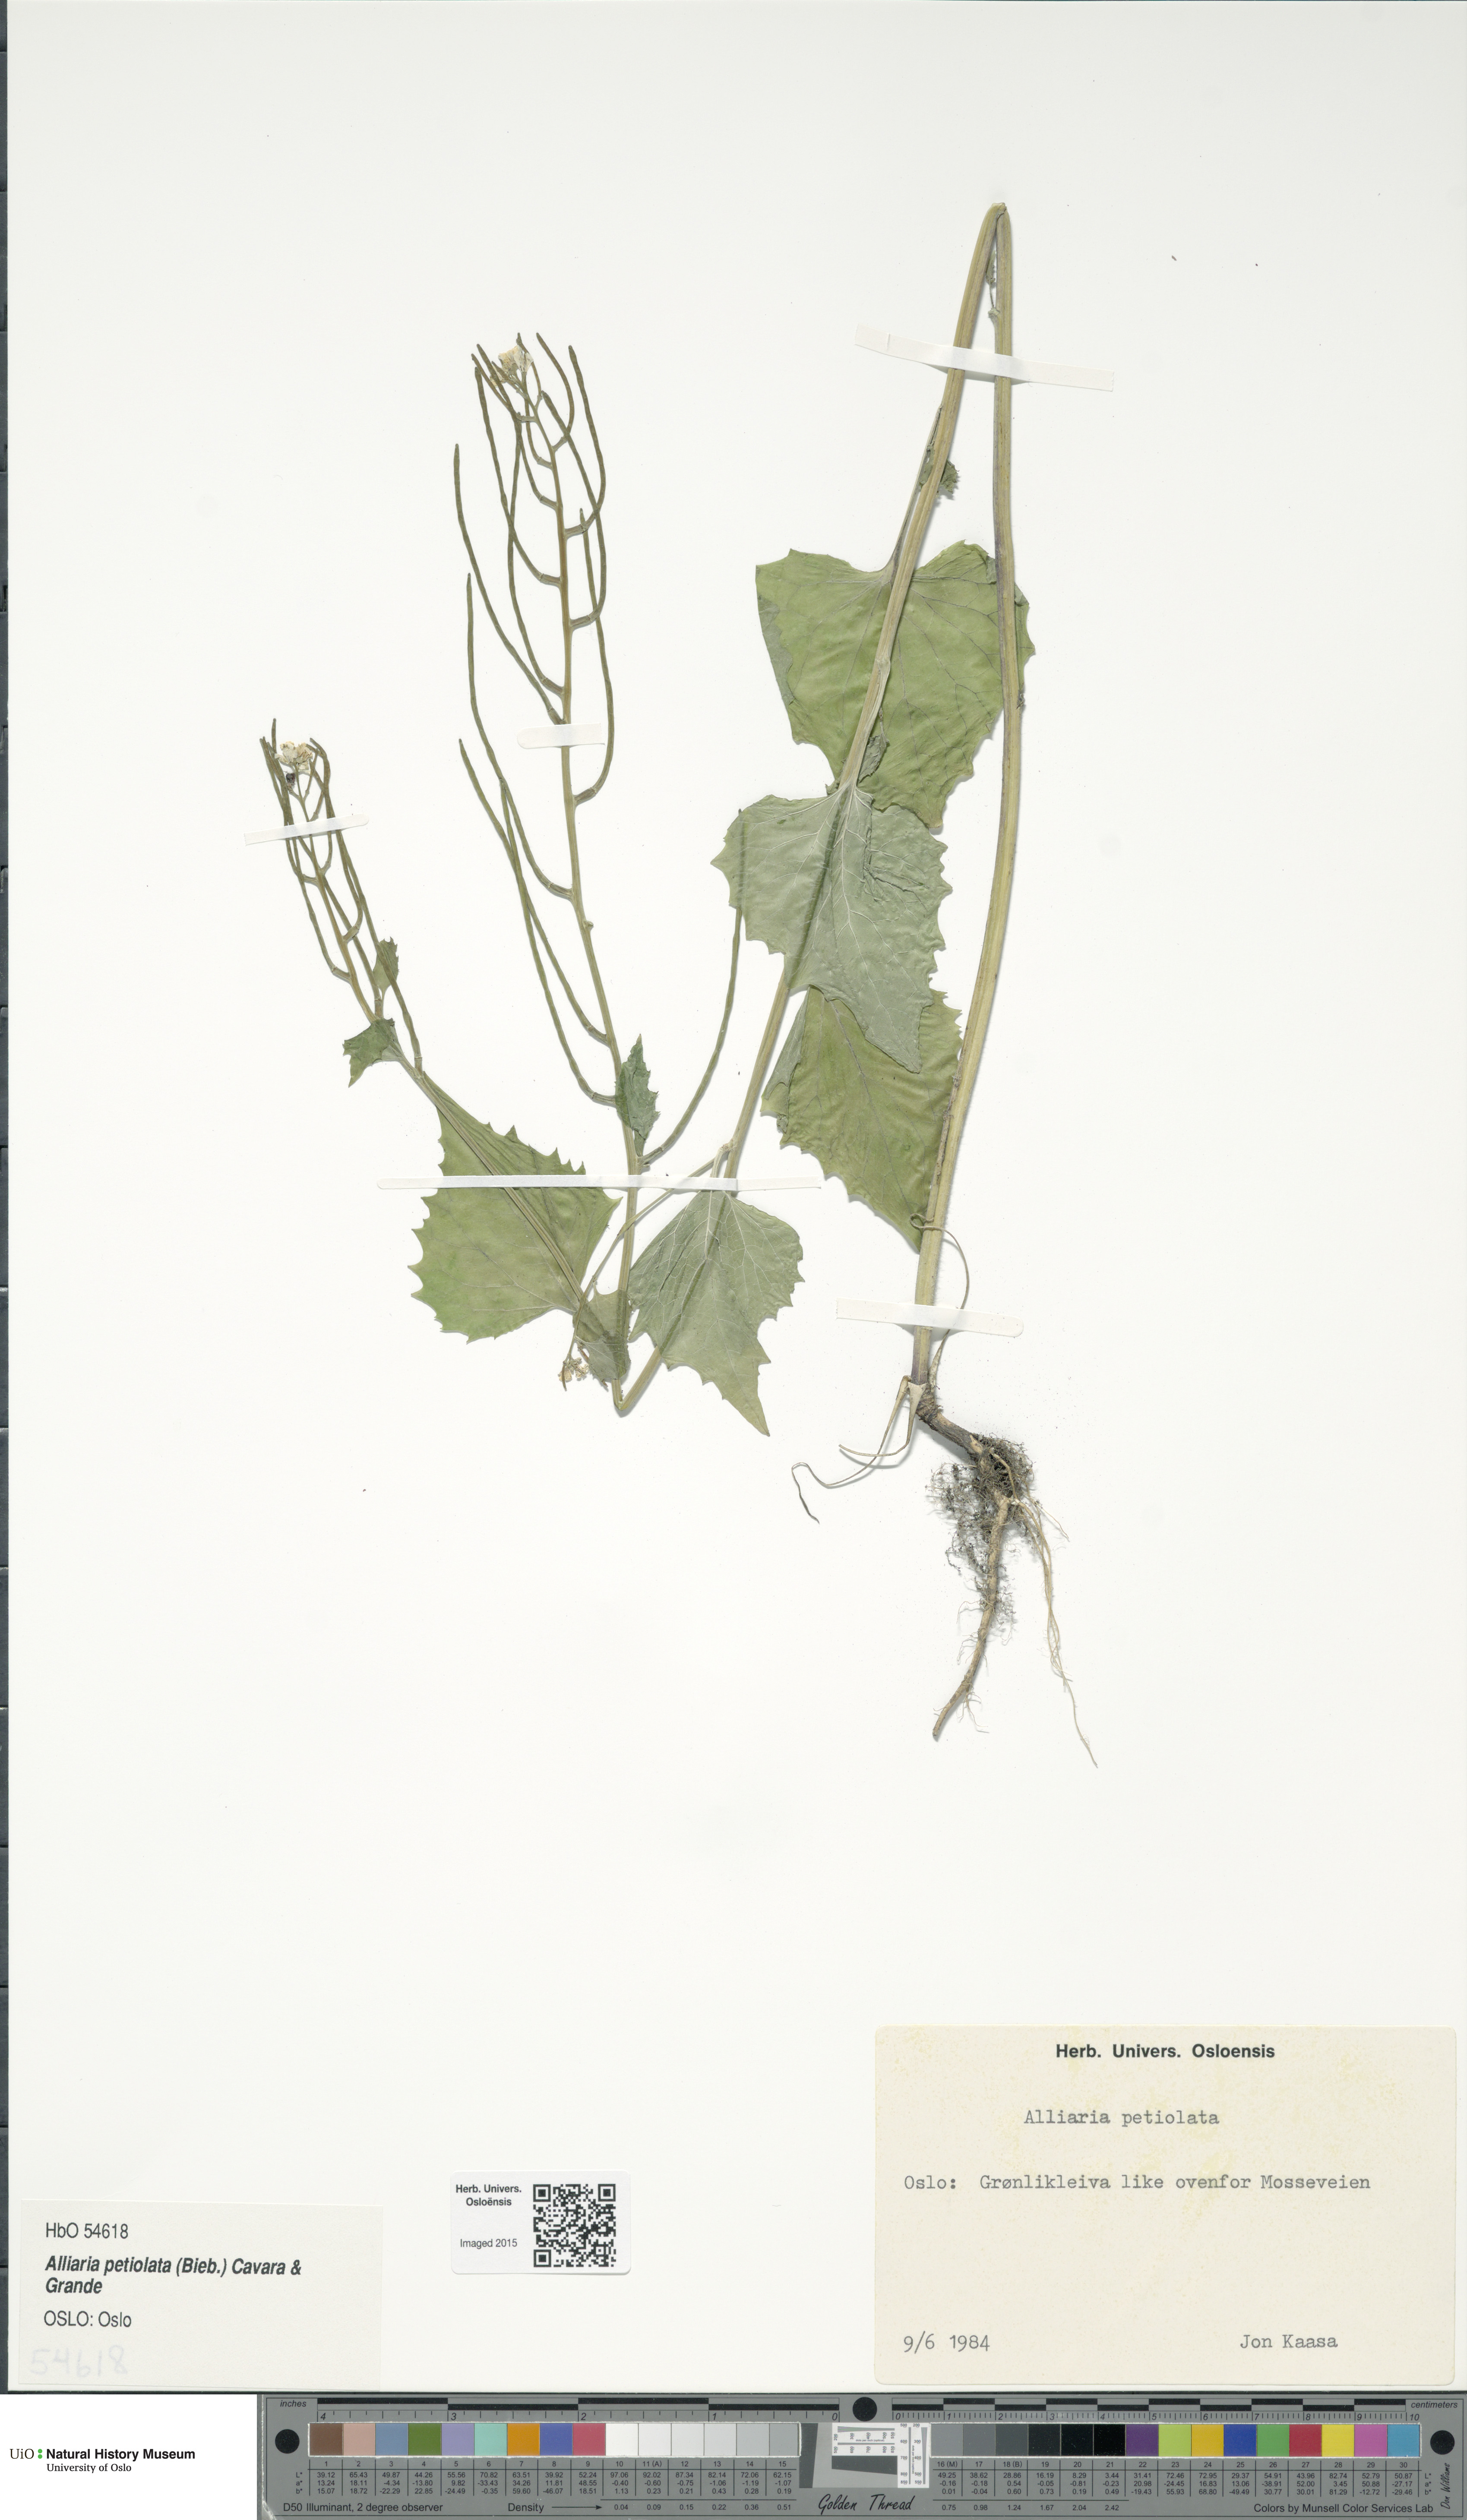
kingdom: Plantae
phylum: Tracheophyta
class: Magnoliopsida
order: Brassicales
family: Brassicaceae
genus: Alliaria
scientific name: Alliaria petiolata
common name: Garlic mustard
